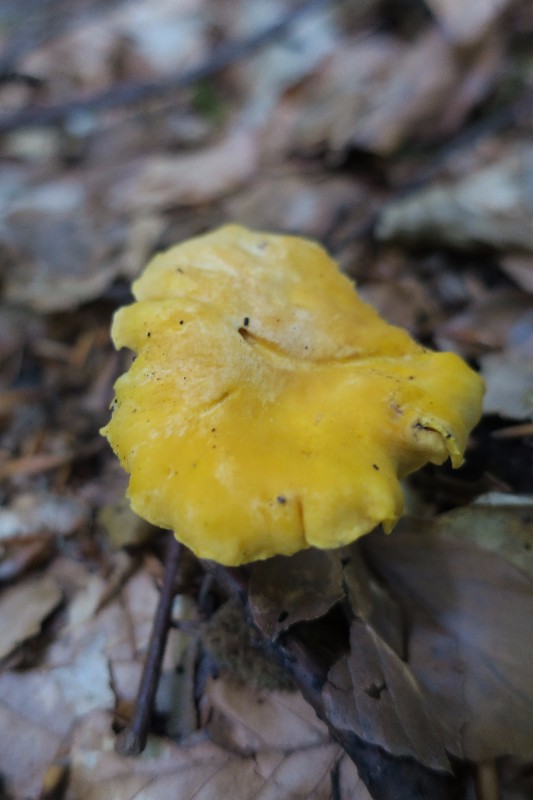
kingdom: Fungi
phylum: Basidiomycota
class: Agaricomycetes
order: Cantharellales
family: Hydnaceae
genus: Cantharellus
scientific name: Cantharellus cibarius
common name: almindelig kantarel
